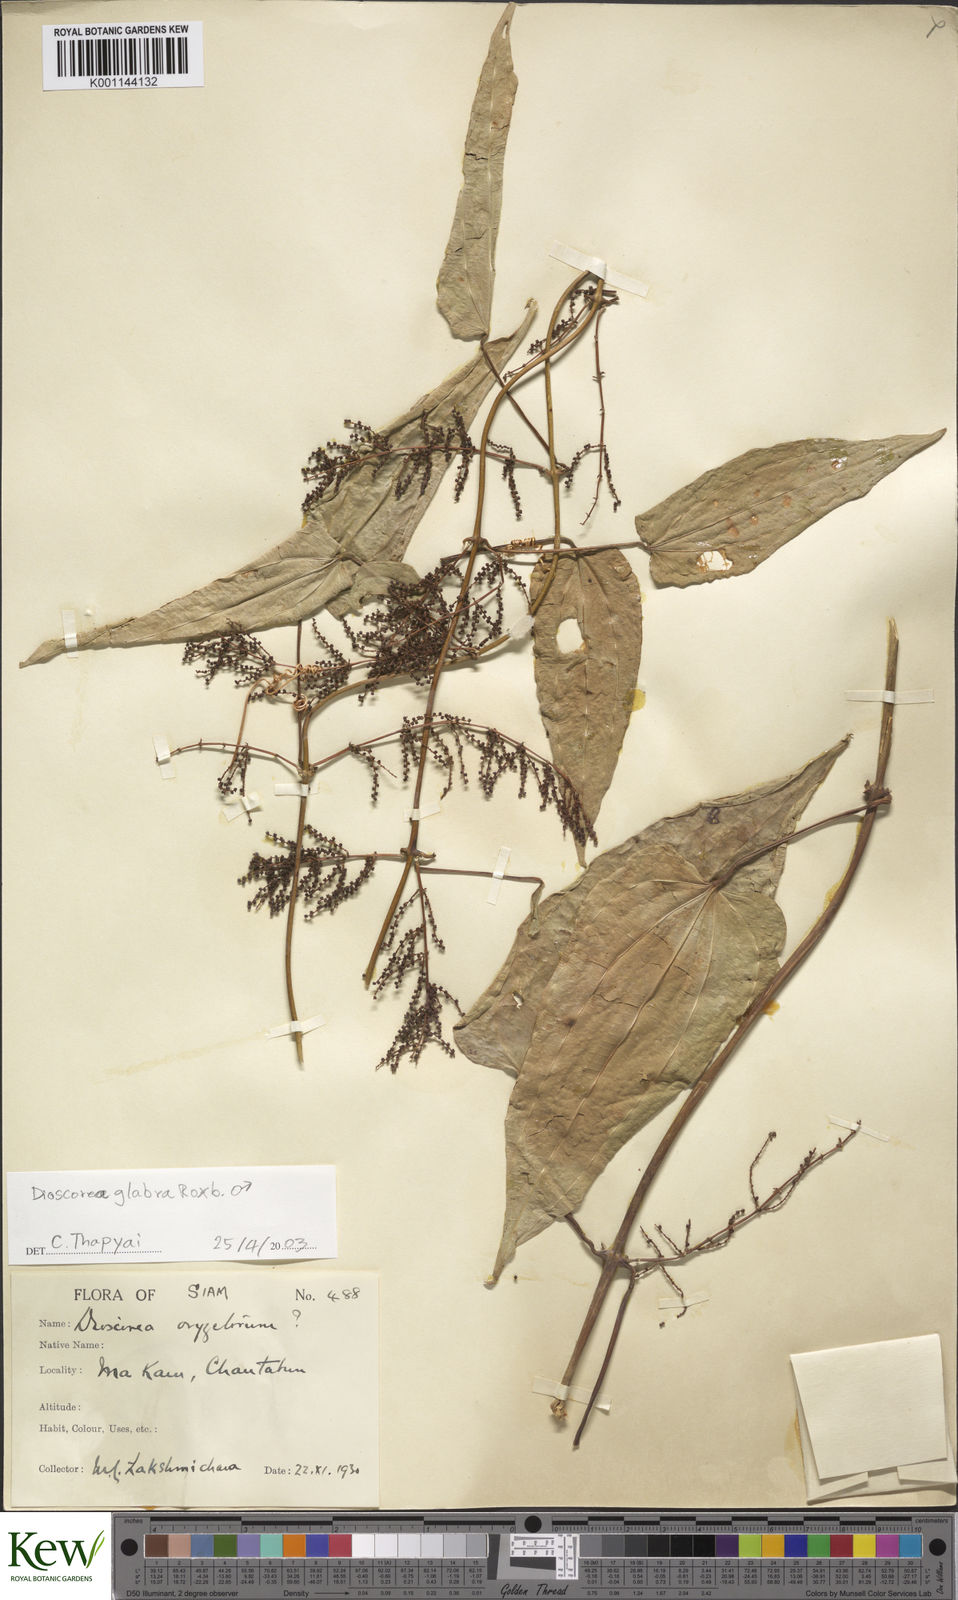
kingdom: Plantae
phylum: Tracheophyta
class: Liliopsida
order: Dioscoreales
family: Dioscoreaceae
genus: Dioscorea
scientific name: Dioscorea glabra
